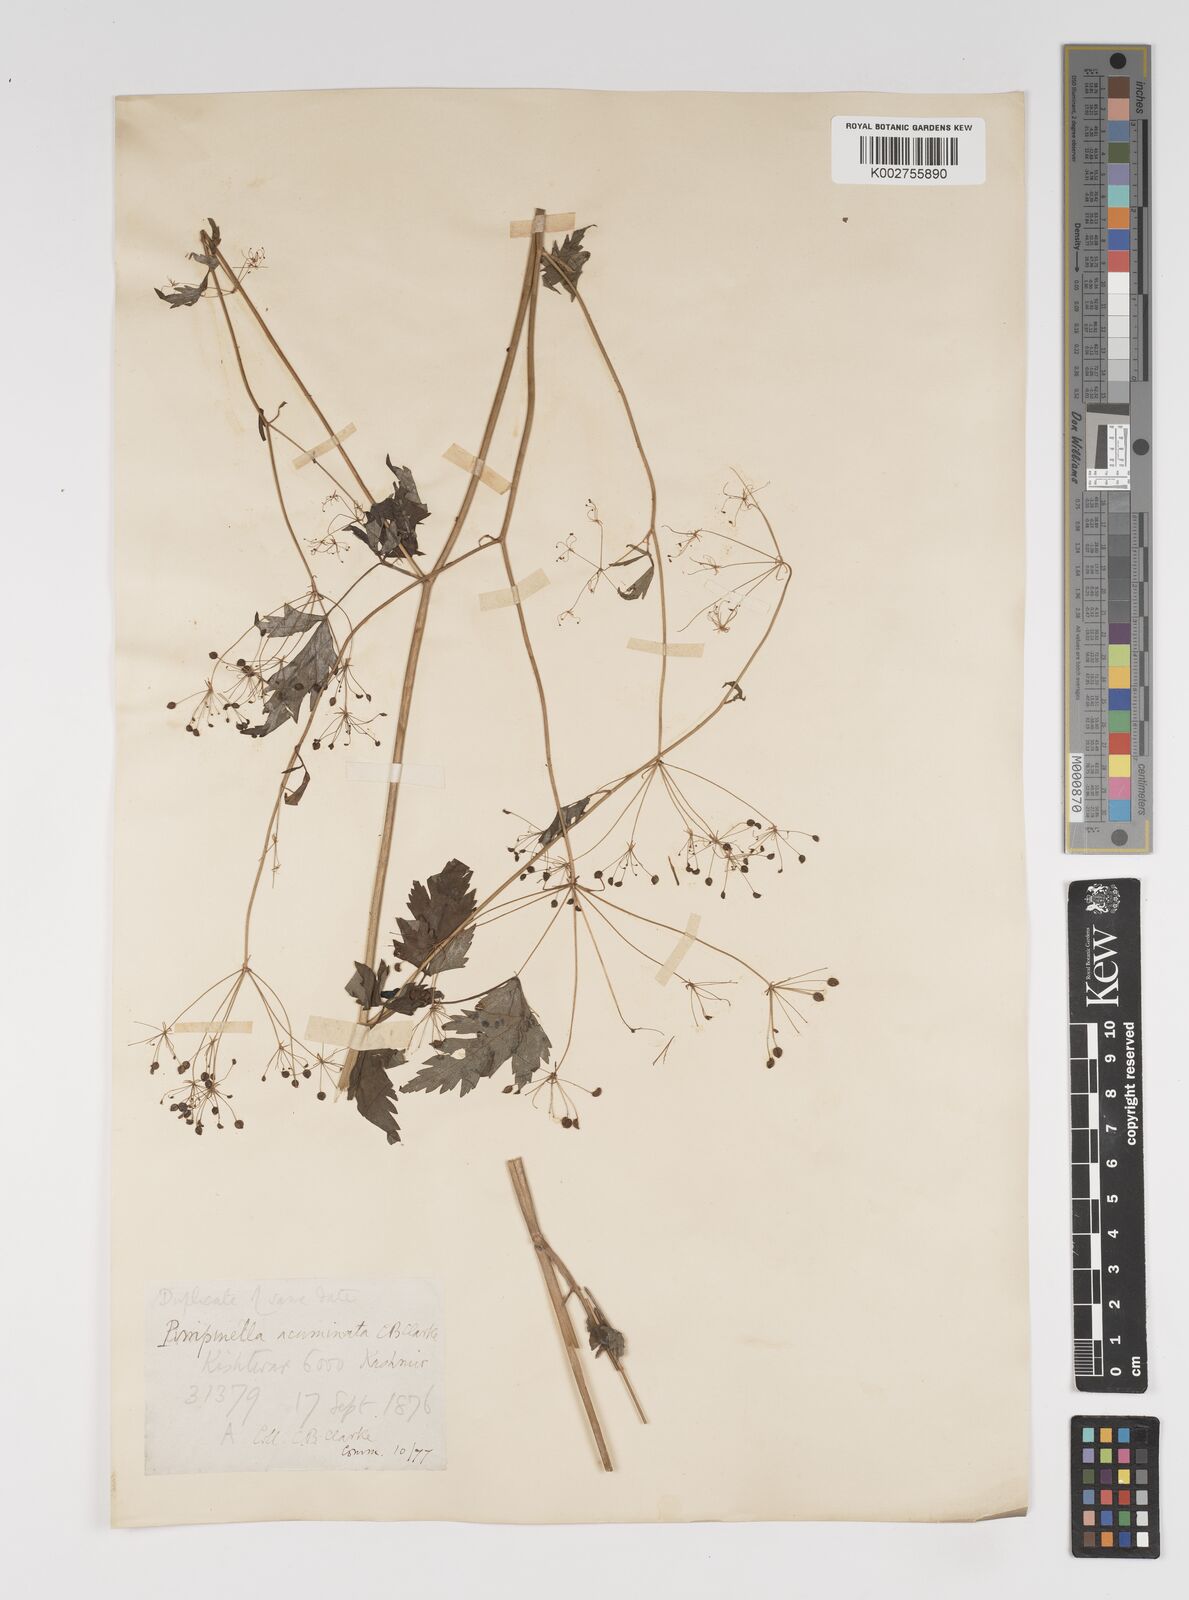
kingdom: Plantae
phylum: Tracheophyta
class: Magnoliopsida
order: Apiales
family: Apiaceae
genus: Pimpinella
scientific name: Pimpinella acuminata
